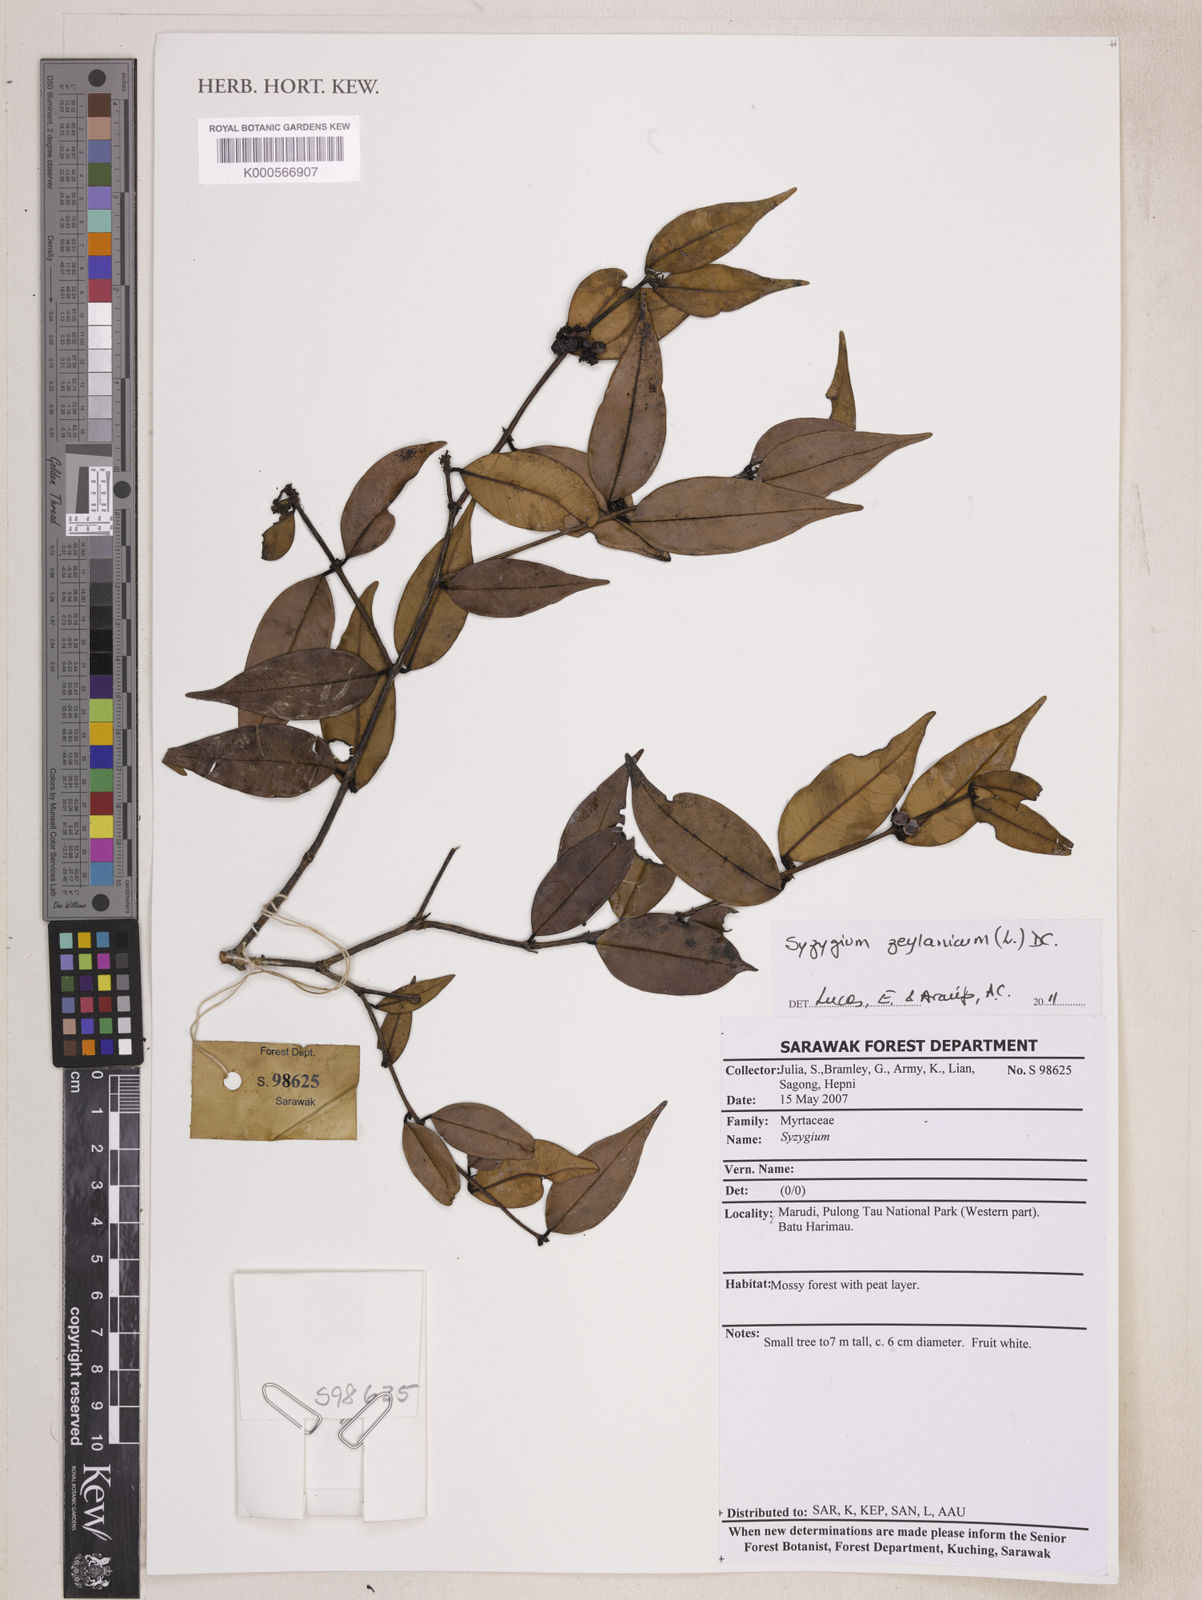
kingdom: Plantae
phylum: Tracheophyta
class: Magnoliopsida
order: Myrtales
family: Myrtaceae
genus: Syzygium
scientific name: Syzygium zeylanicum
